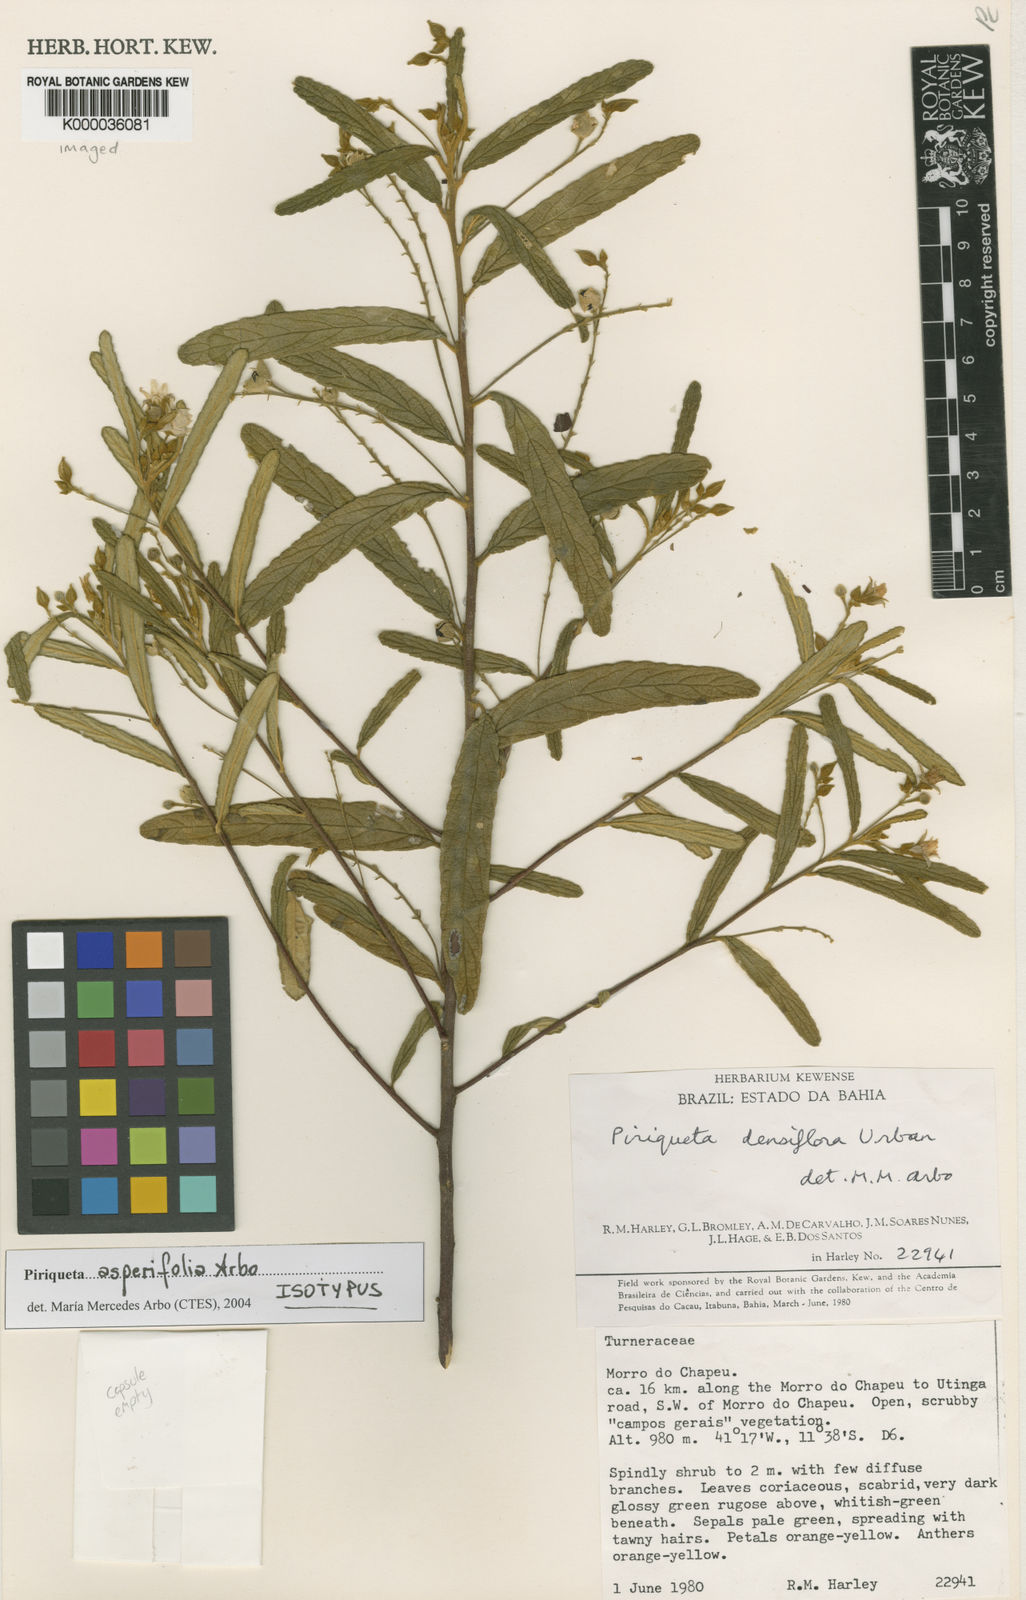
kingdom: Plantae
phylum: Tracheophyta
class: Magnoliopsida
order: Malpighiales
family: Turneraceae
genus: Piriqueta
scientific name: Piriqueta asperifolia
